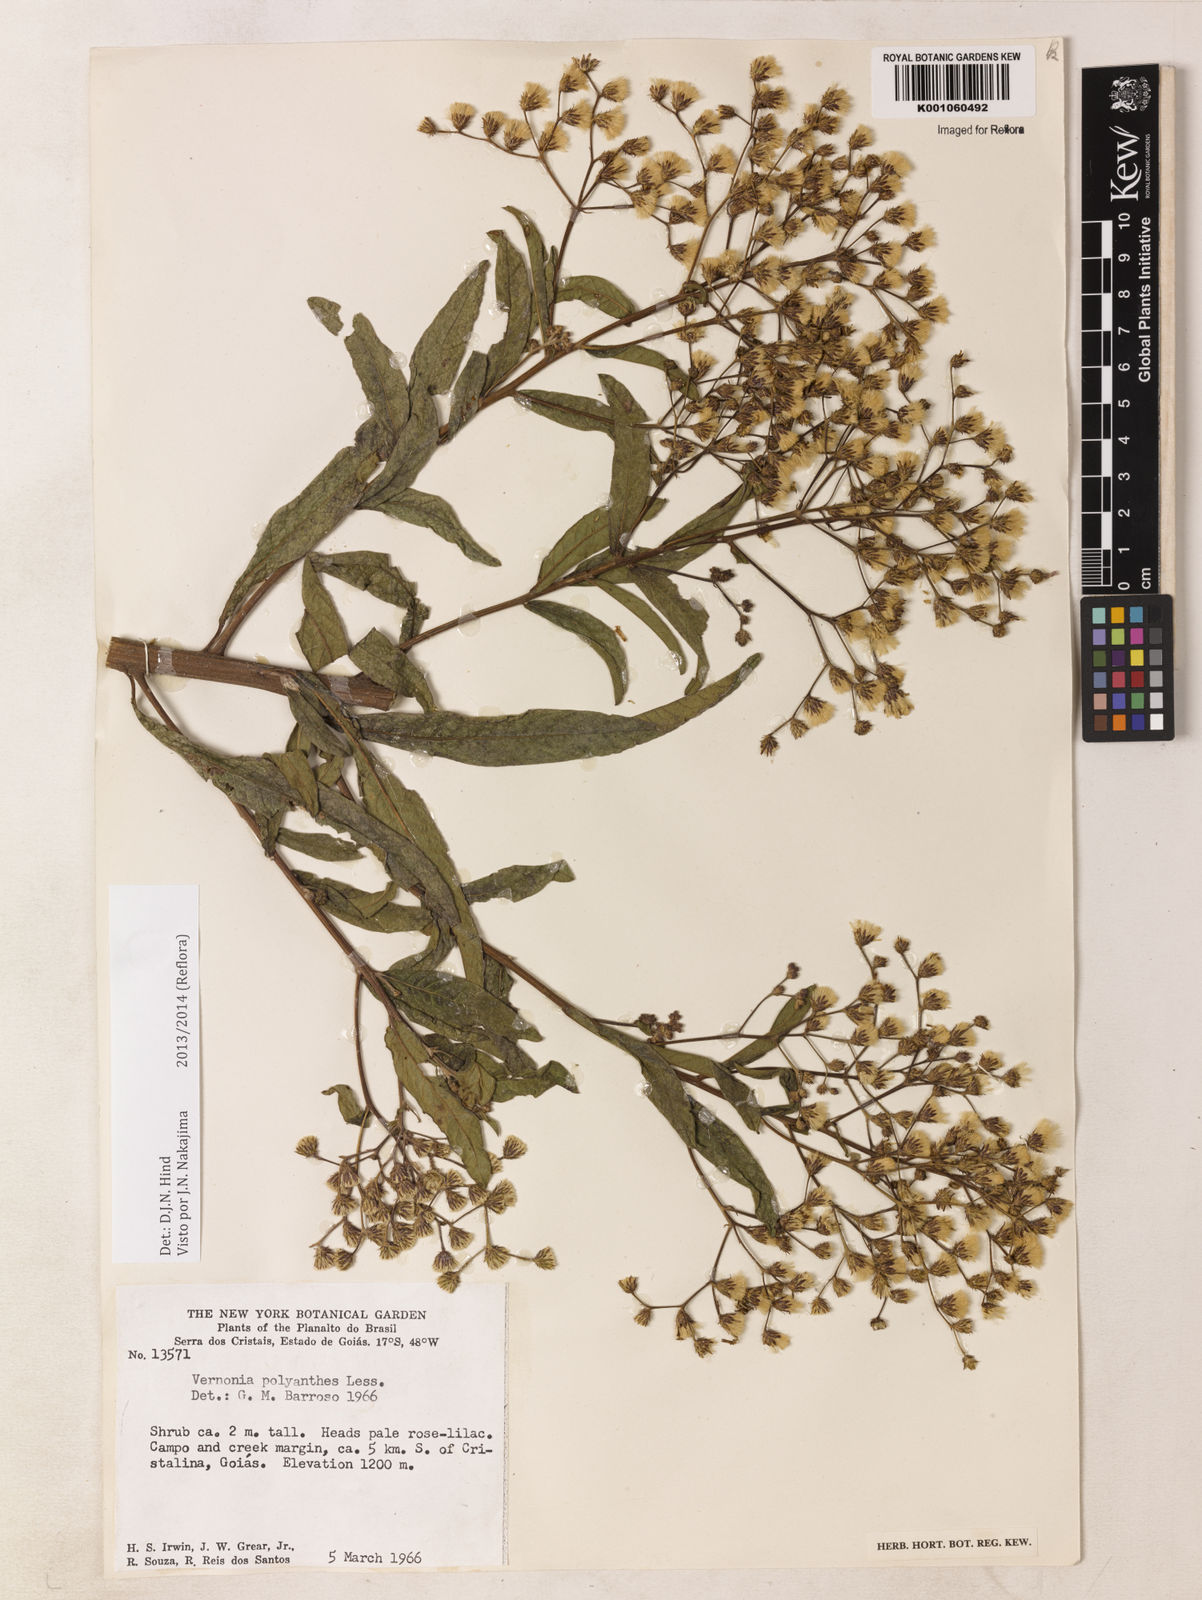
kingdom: Plantae
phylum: Tracheophyta
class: Magnoliopsida
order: Asterales
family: Asteraceae
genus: Vernonanthura
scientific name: Vernonanthura polyanthes
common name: Tree aster
